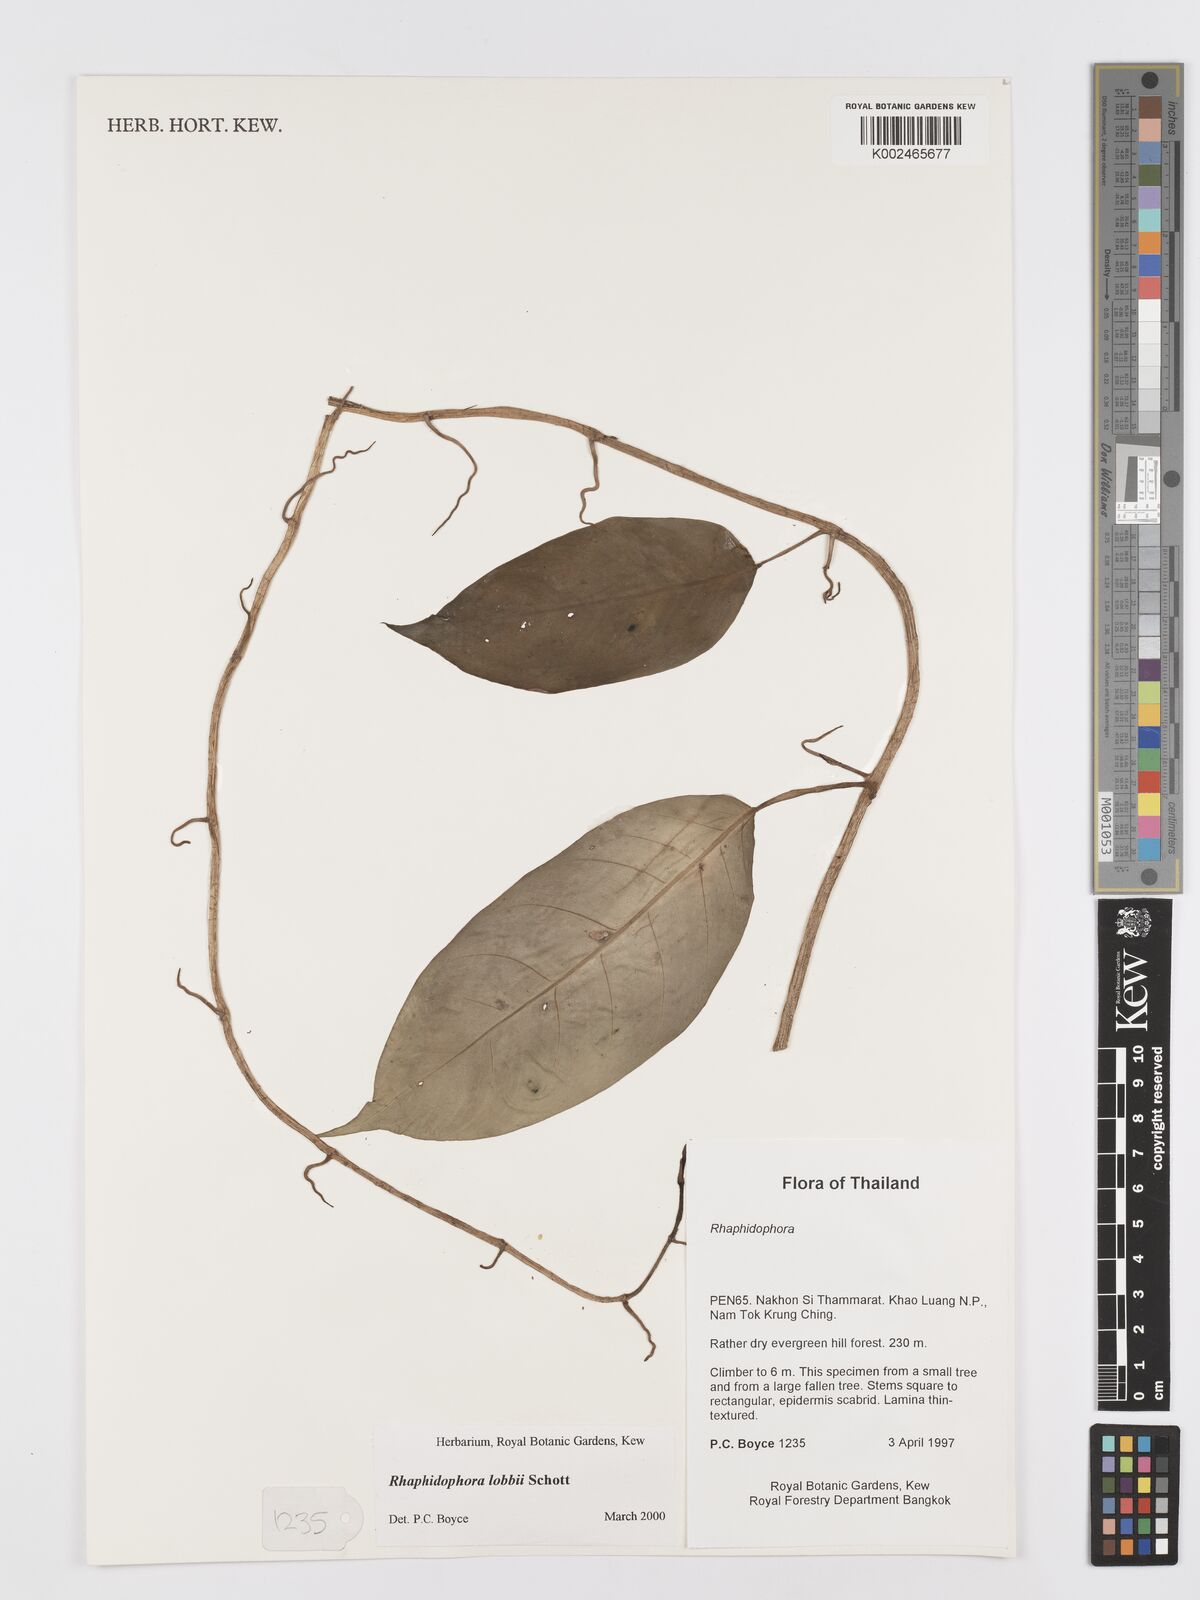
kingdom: Plantae
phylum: Tracheophyta
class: Liliopsida
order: Alismatales
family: Araceae
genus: Rhaphidophora
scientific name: Rhaphidophora lobbii
